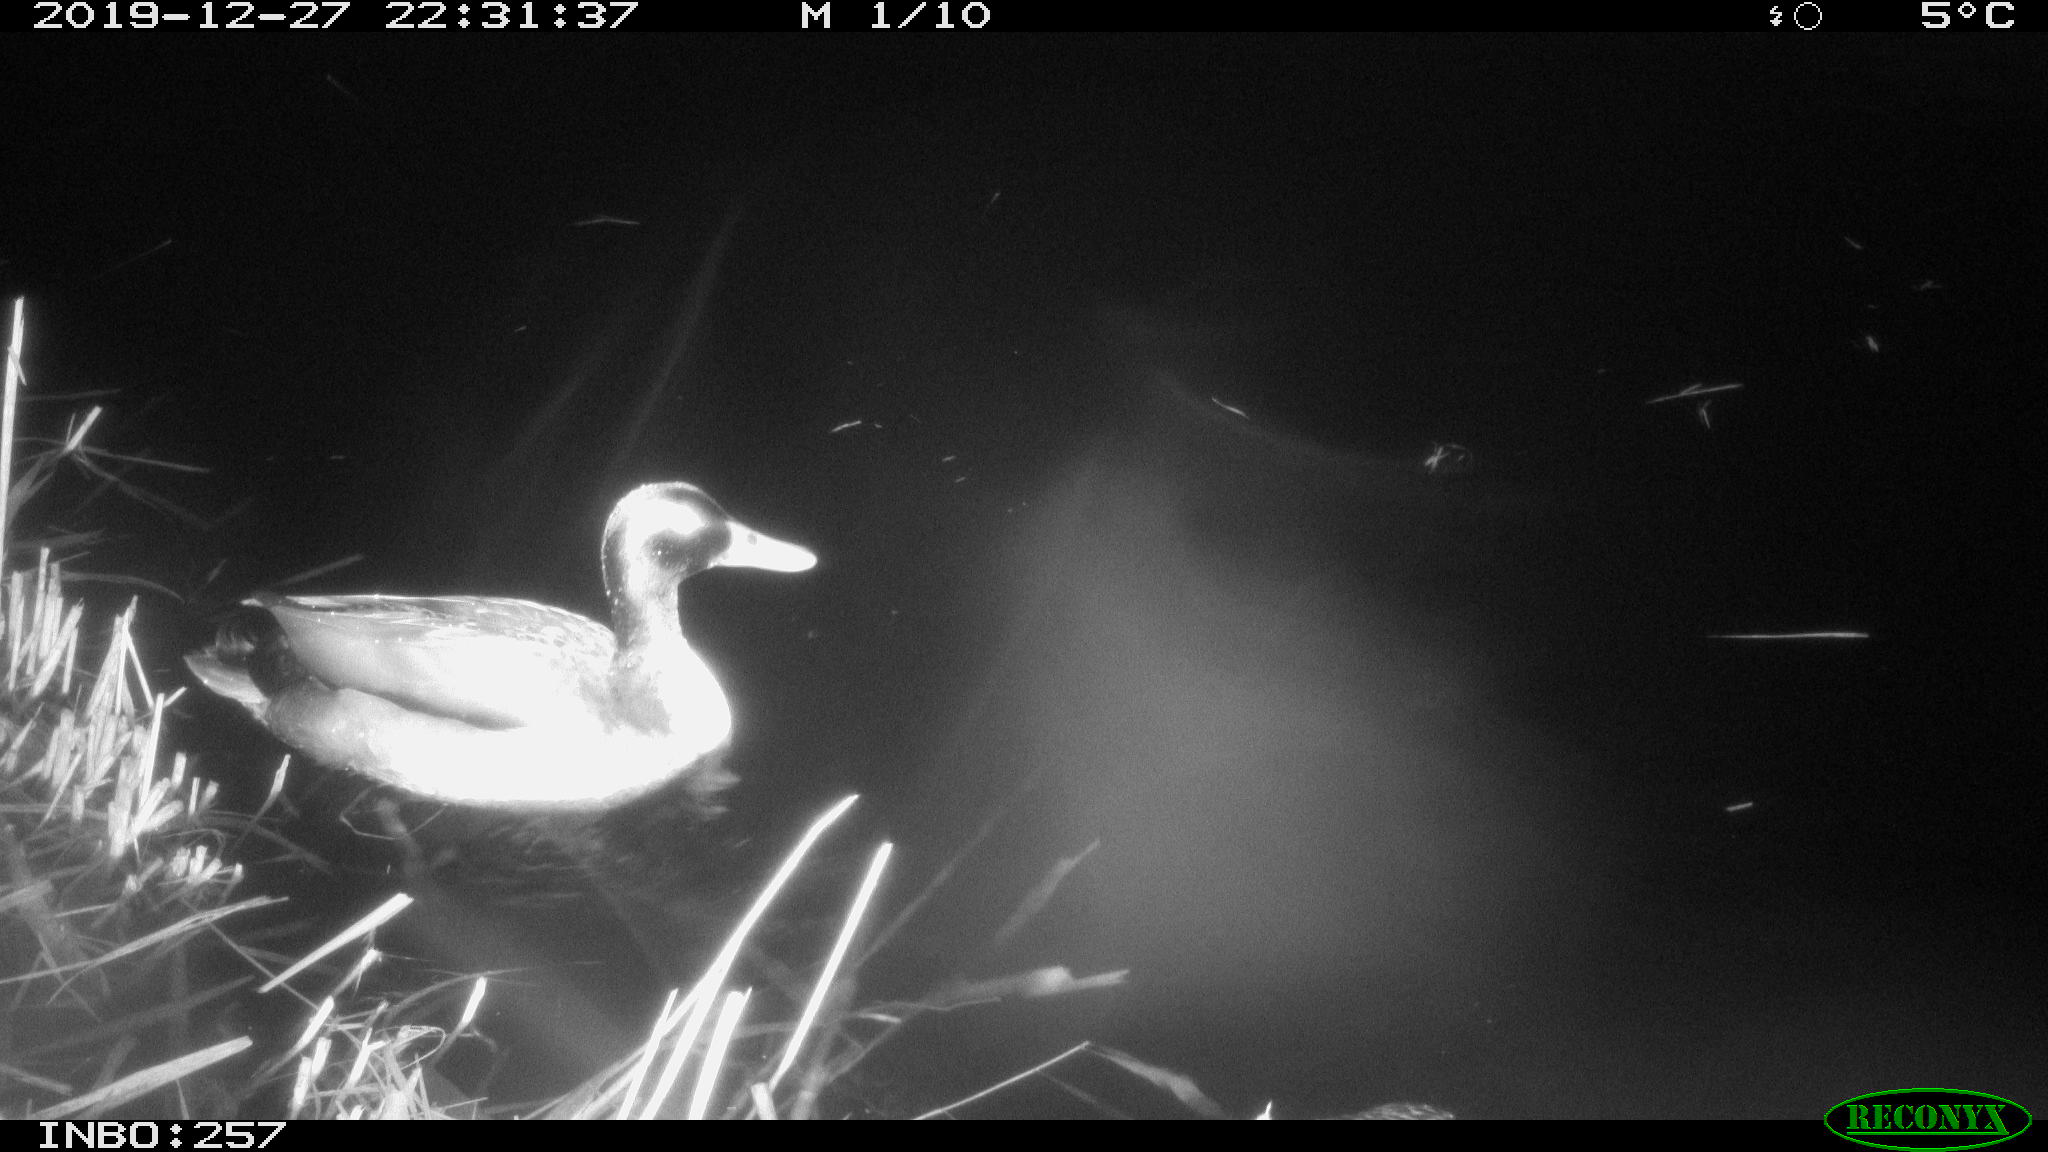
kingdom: Animalia
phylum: Chordata
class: Aves
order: Anseriformes
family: Anatidae
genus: Anas
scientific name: Anas platyrhynchos
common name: Mallard
